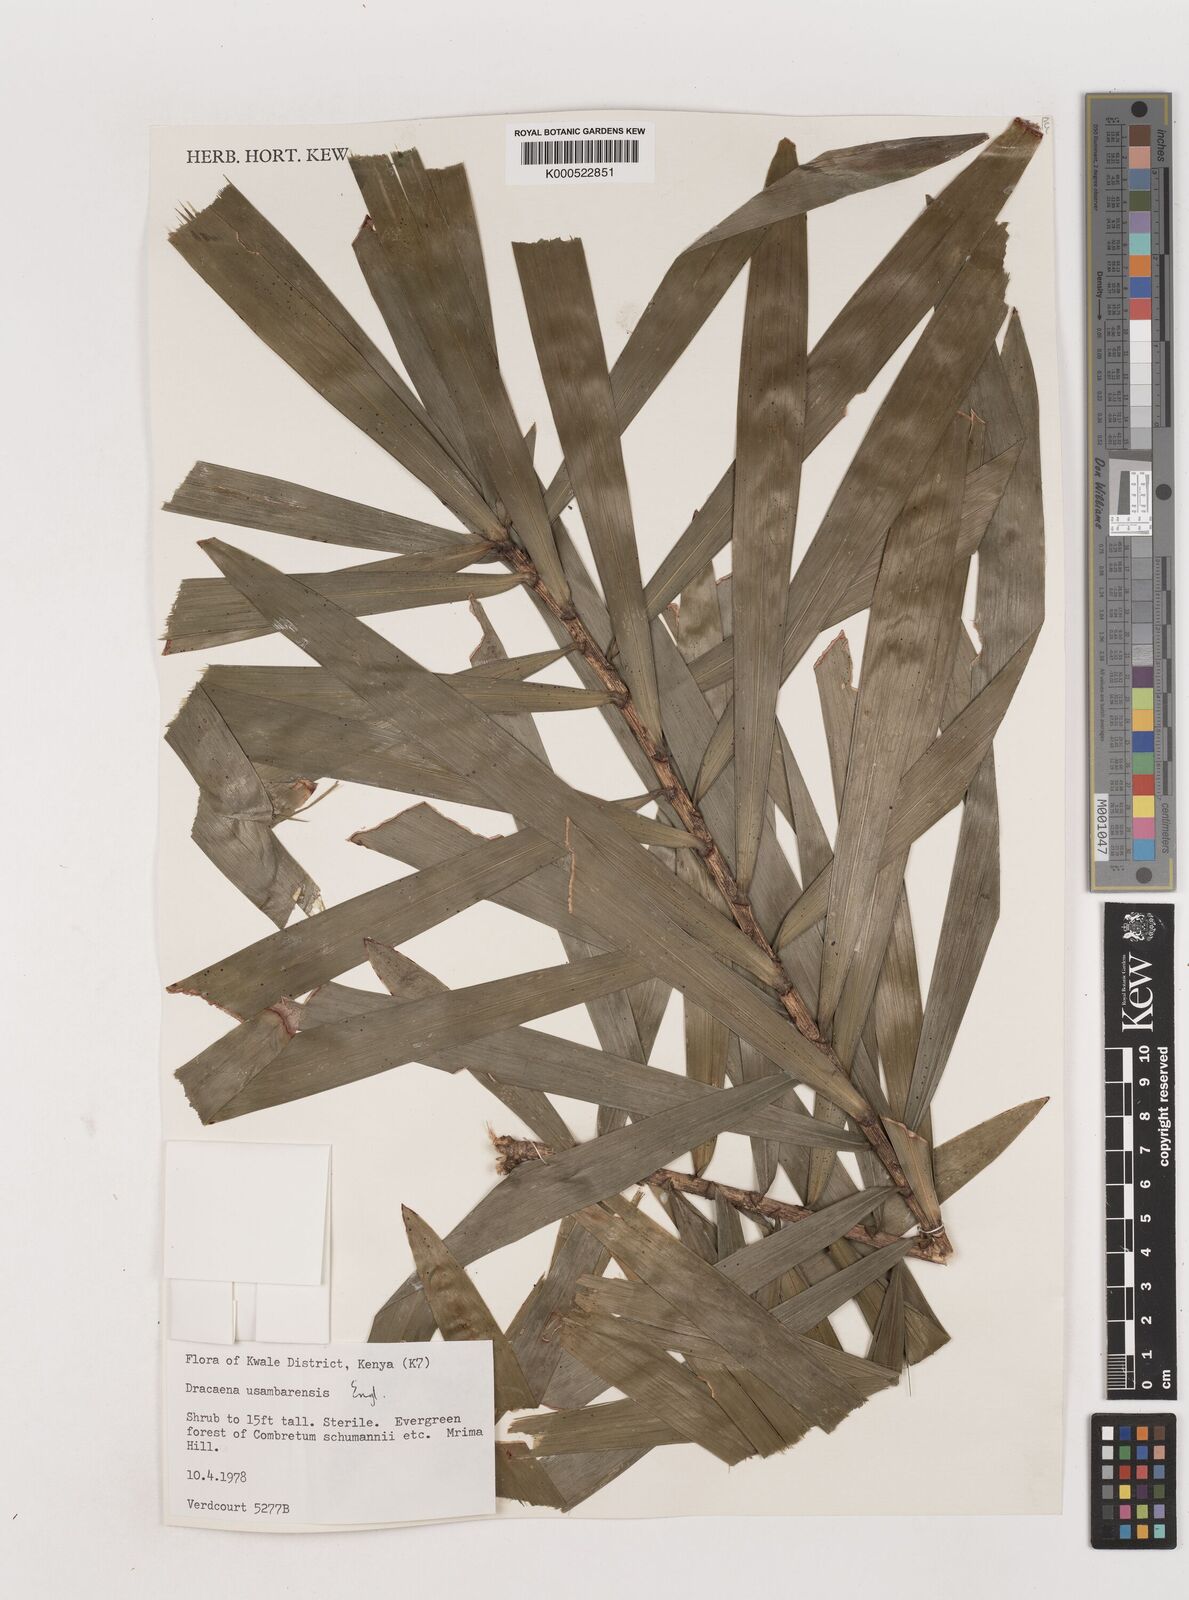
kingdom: Plantae
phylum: Tracheophyta
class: Liliopsida
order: Asparagales
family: Asparagaceae
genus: Dracaena
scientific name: Dracaena usambarensis
